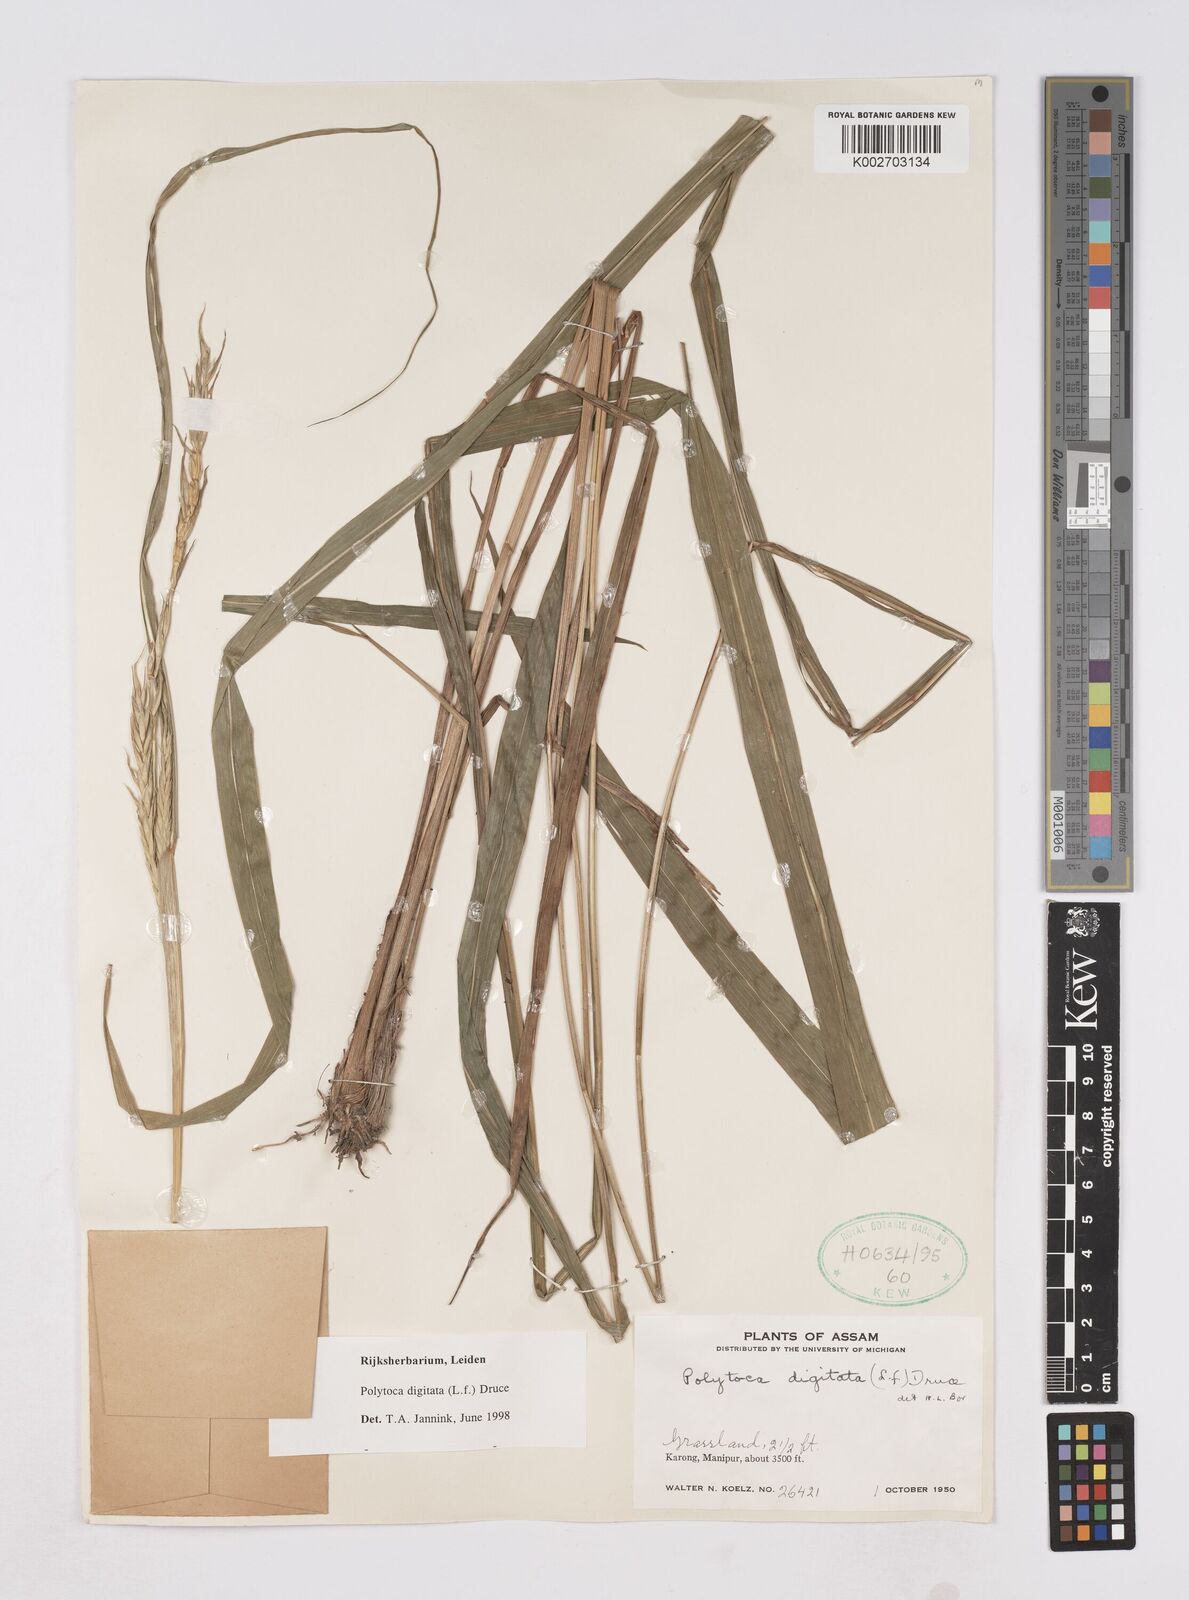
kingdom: Plantae
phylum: Tracheophyta
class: Liliopsida
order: Poales
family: Poaceae
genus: Polytoca
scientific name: Polytoca digitata
